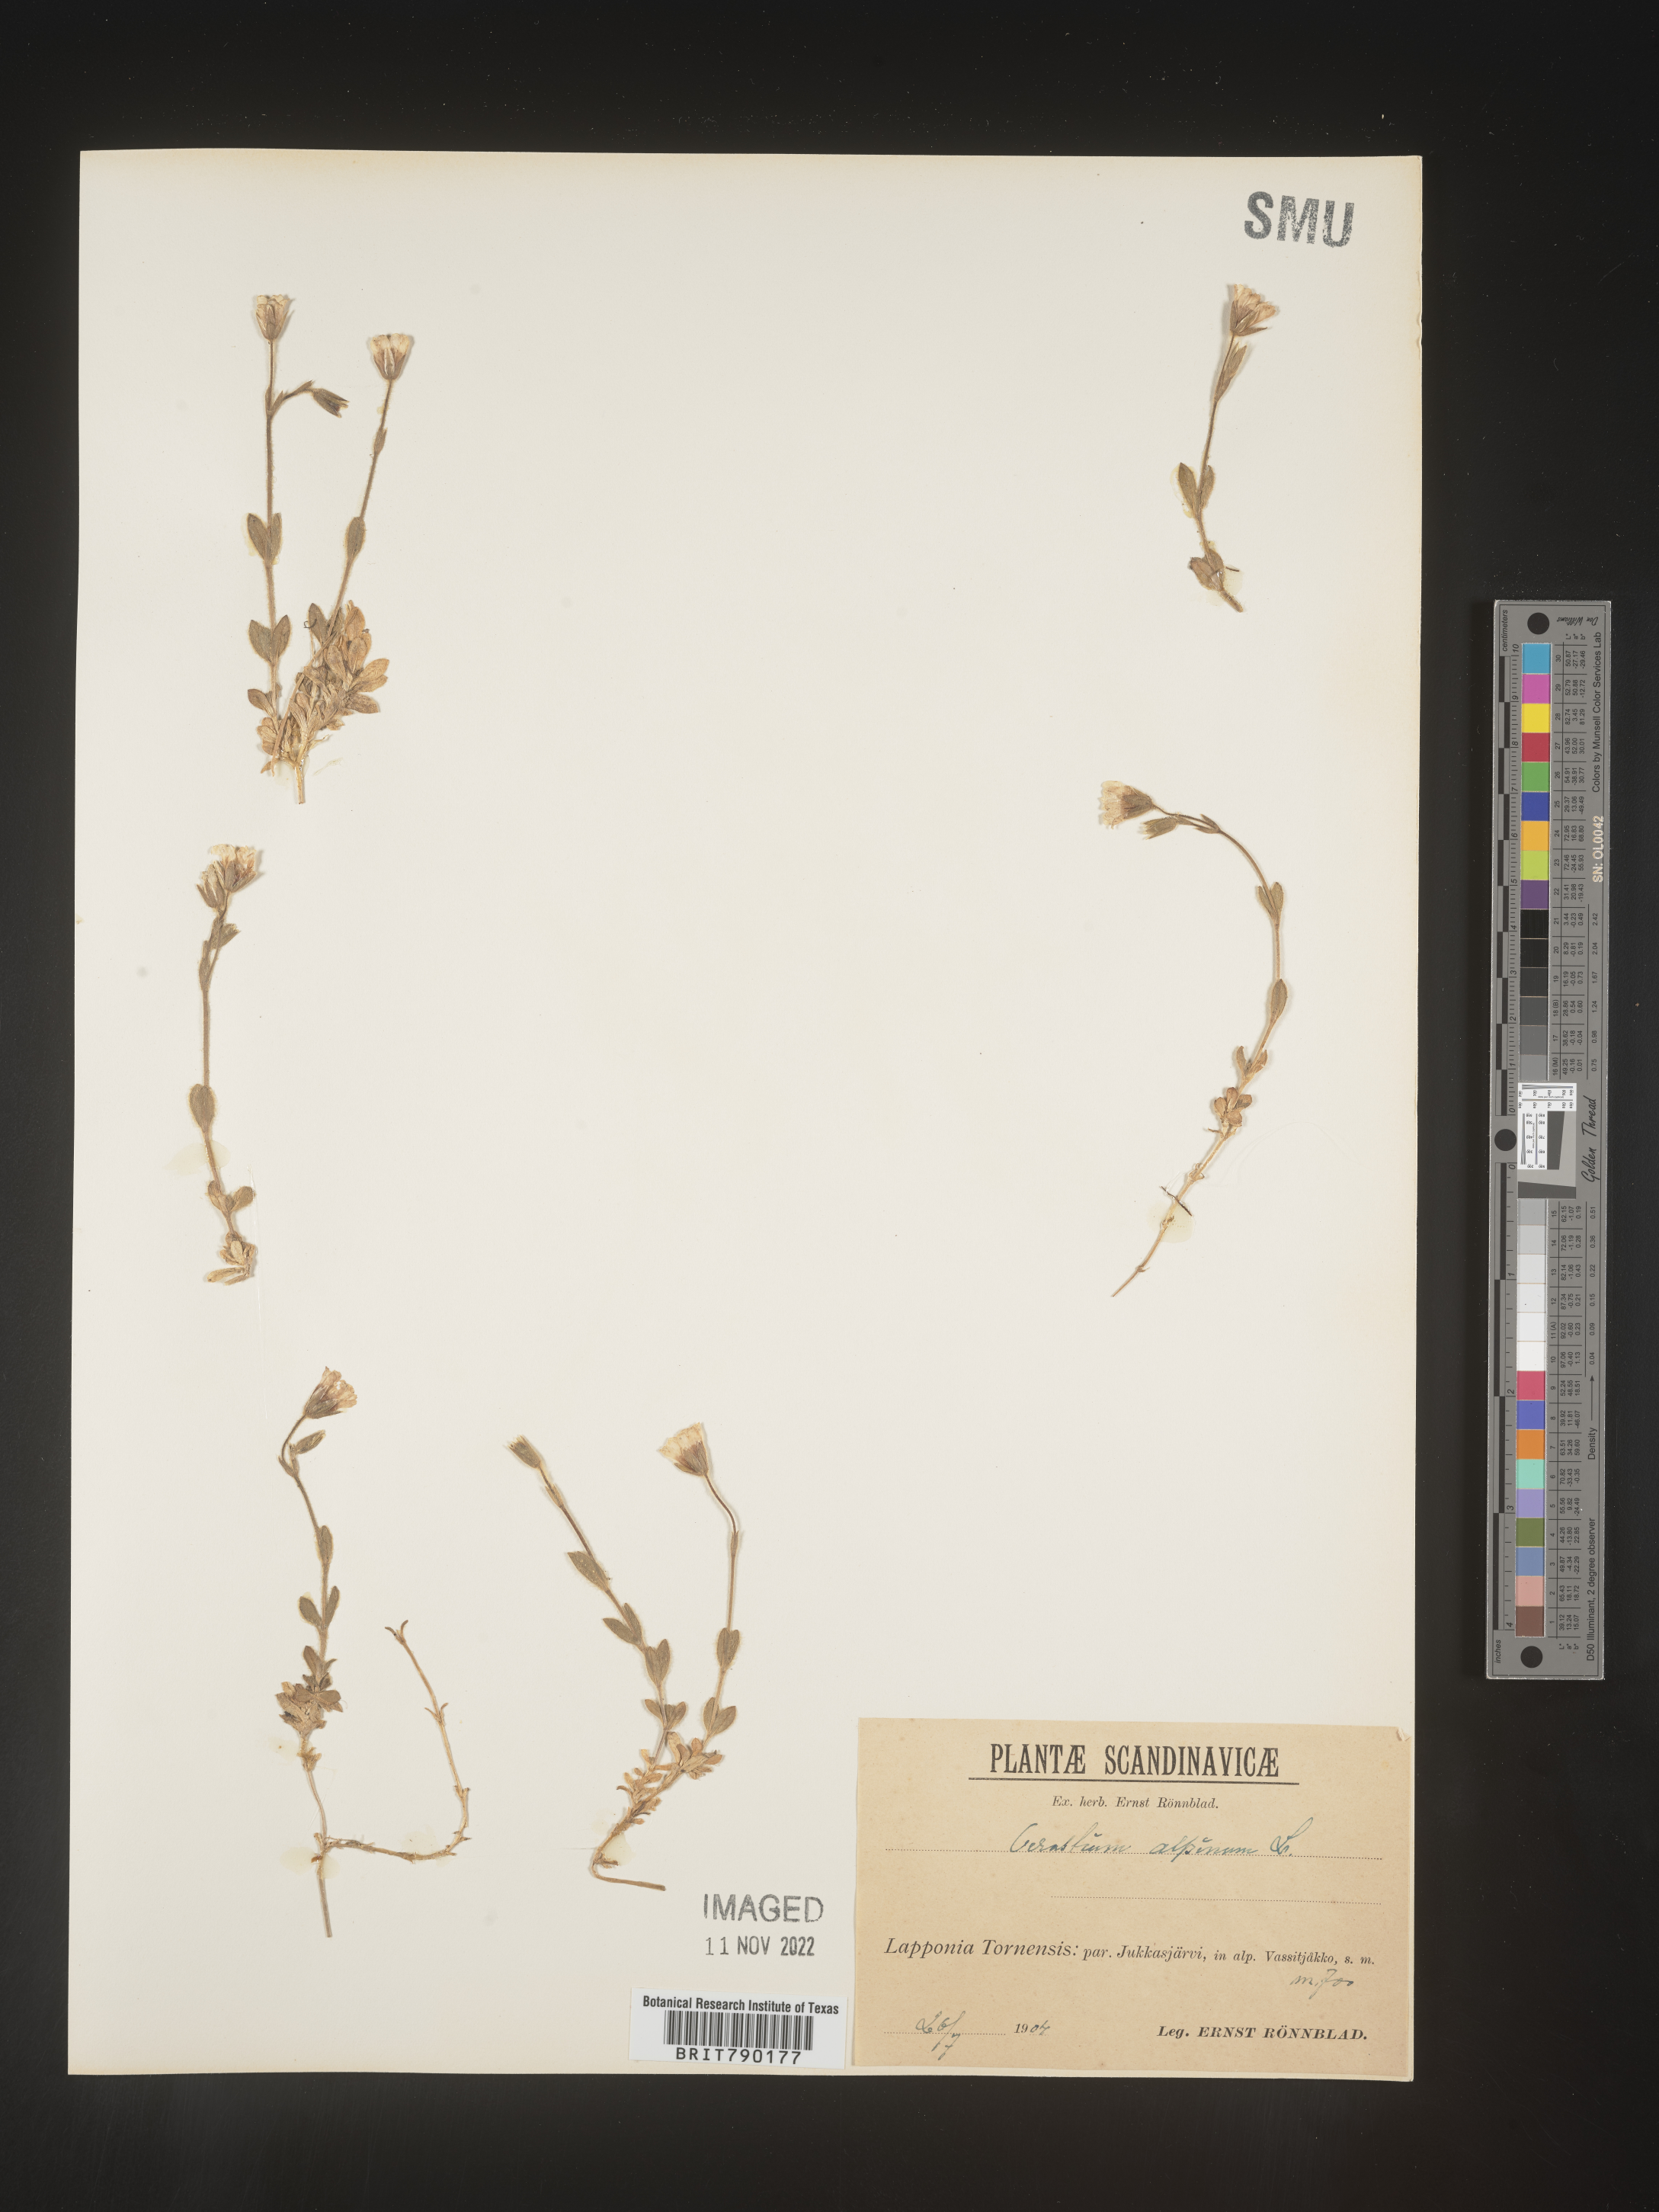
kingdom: Plantae
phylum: Tracheophyta
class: Magnoliopsida
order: Caryophyllales
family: Caryophyllaceae
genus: Cerastium
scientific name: Cerastium
